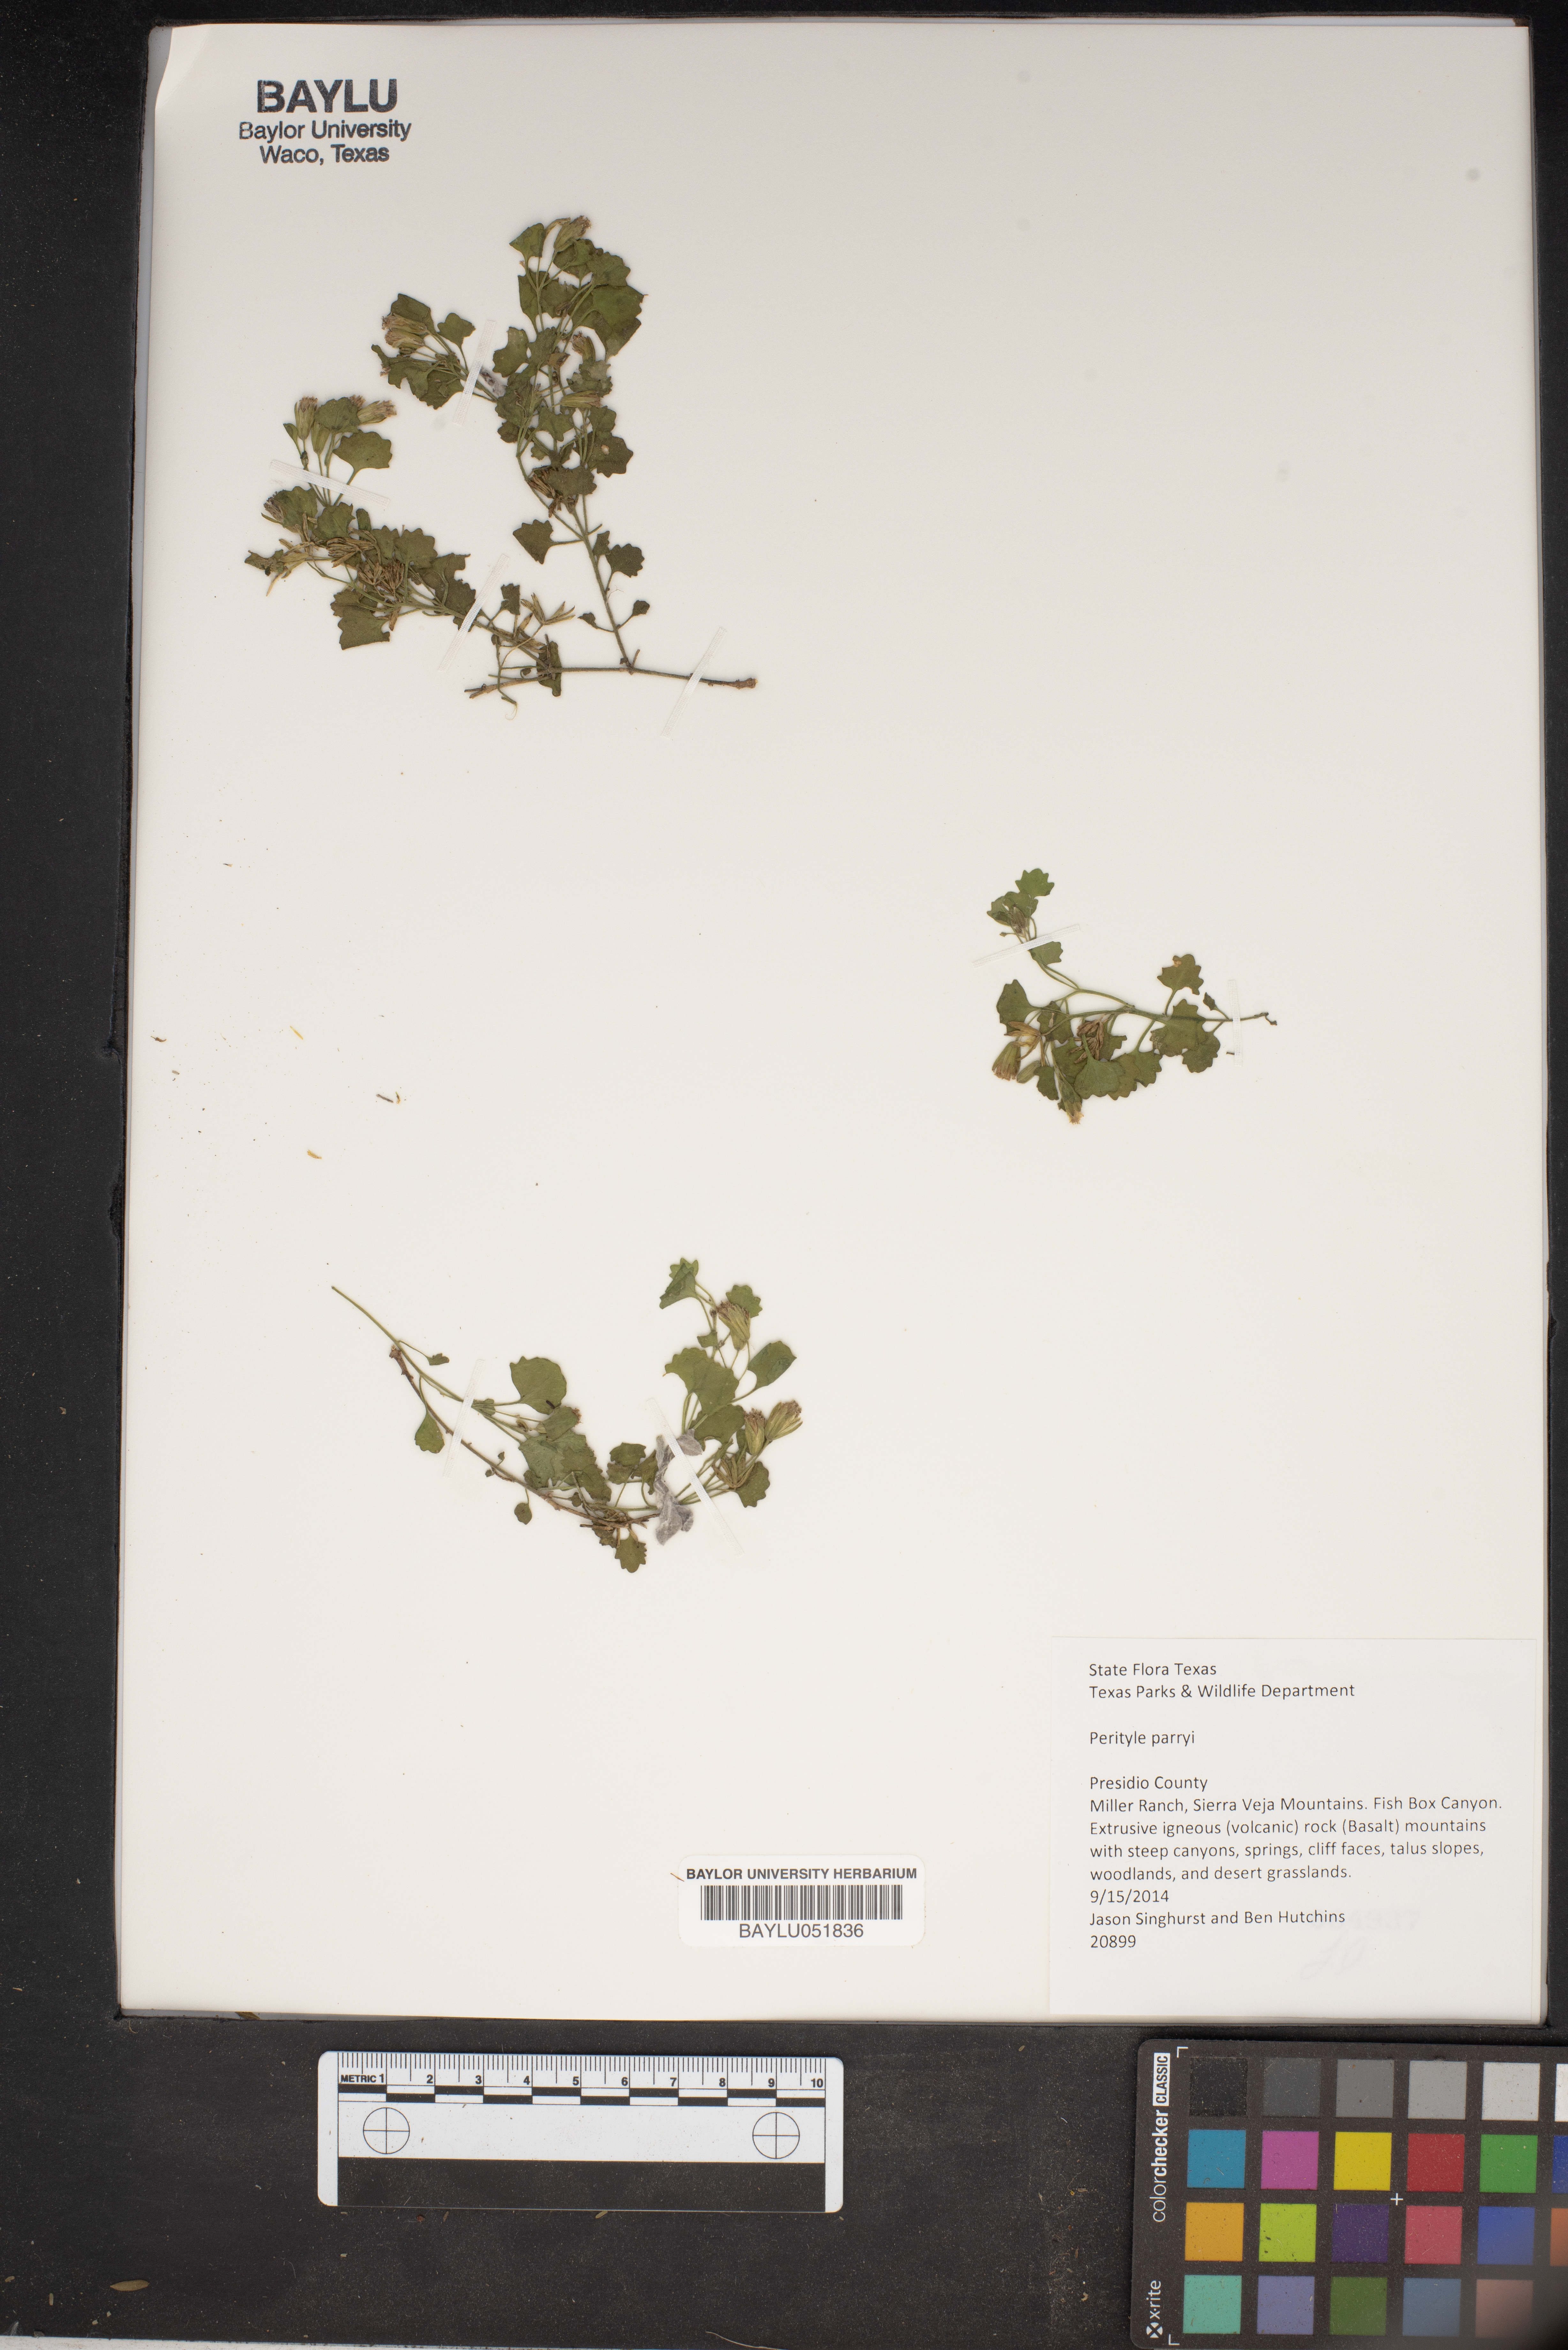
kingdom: Plantae
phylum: Tracheophyta
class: Magnoliopsida
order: Asterales
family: Asteraceae
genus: Laphamia
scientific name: Laphamia parryi
